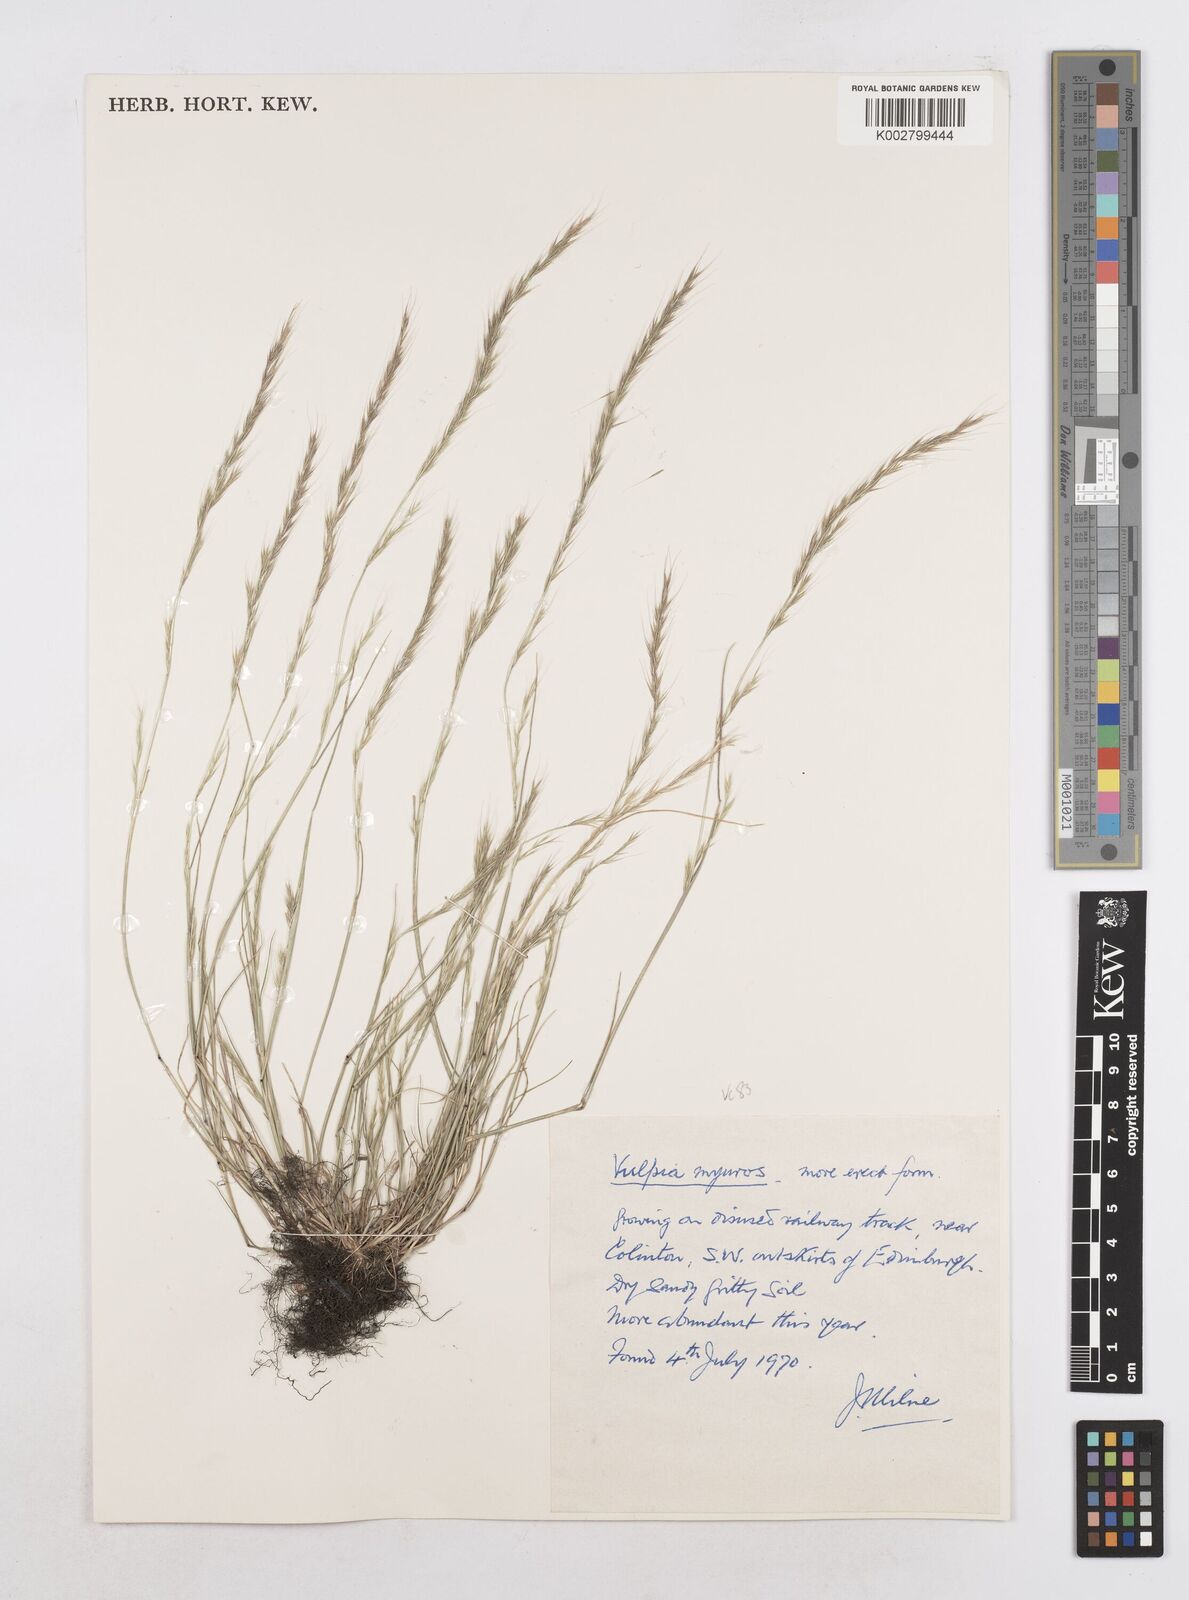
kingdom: Plantae
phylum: Tracheophyta
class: Liliopsida
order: Poales
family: Poaceae
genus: Festuca
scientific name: Festuca myuros
